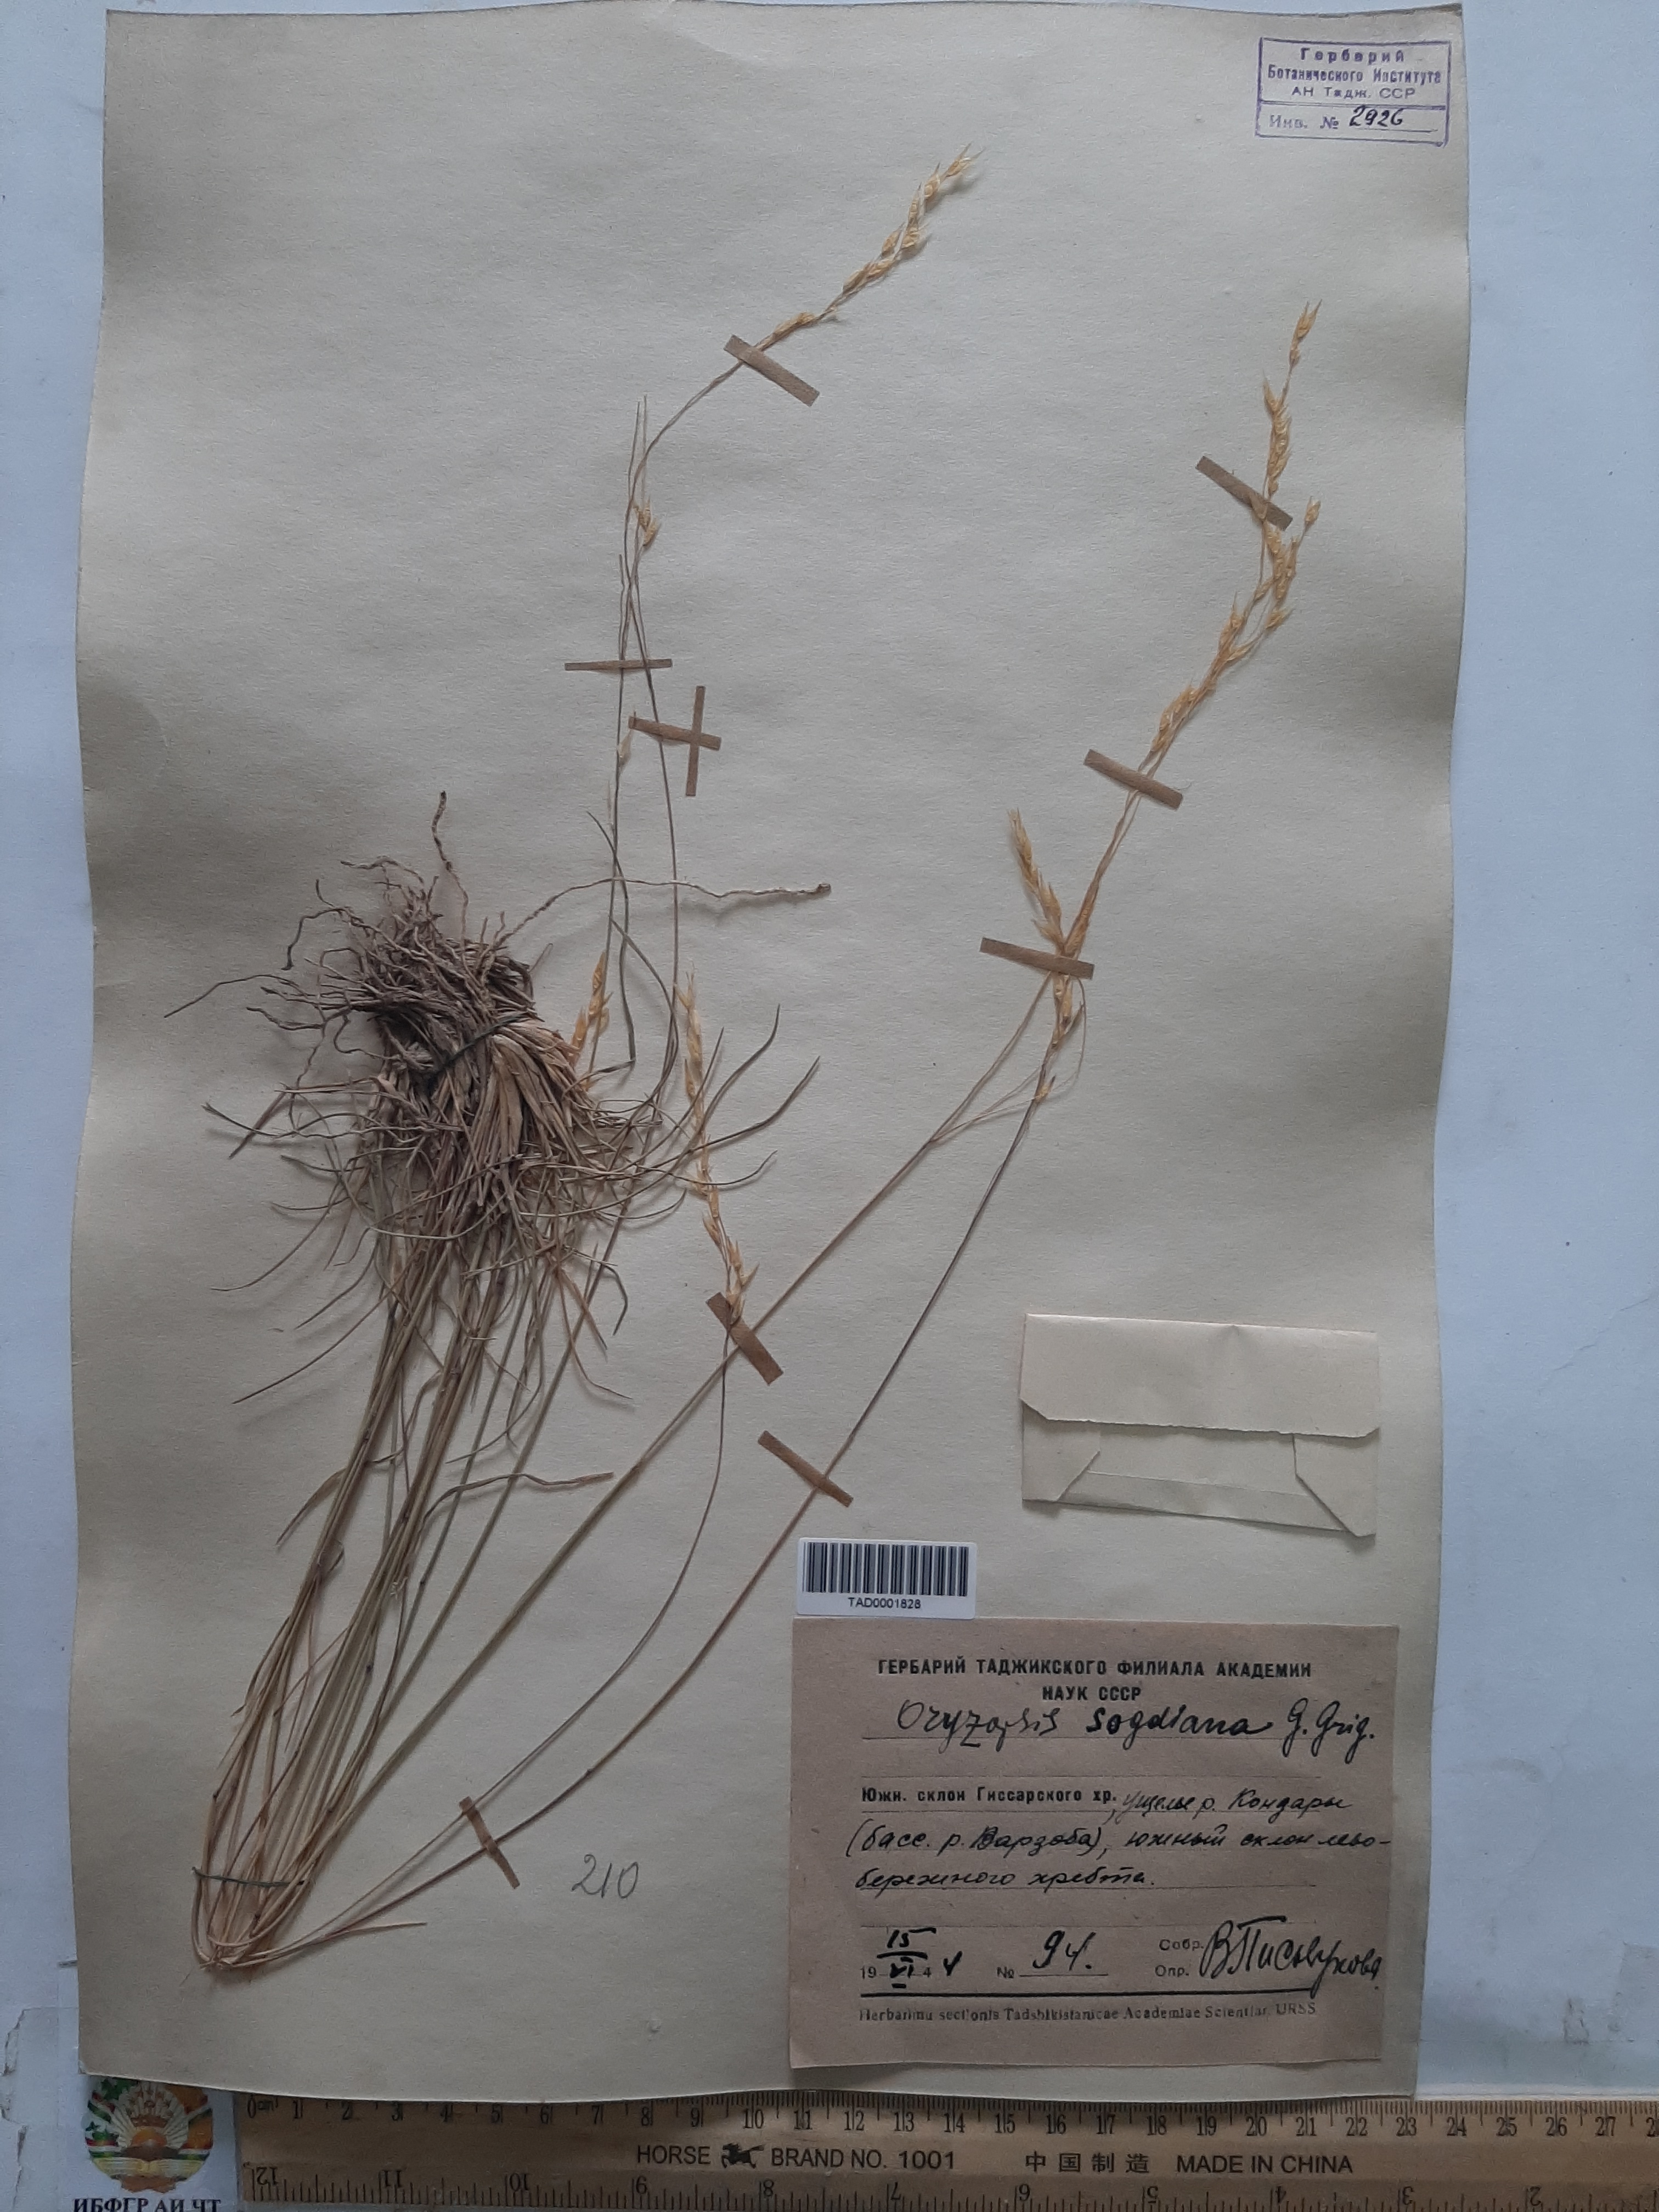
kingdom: Plantae
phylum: Tracheophyta
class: Liliopsida
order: Poales
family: Poaceae
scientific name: Poaceae
